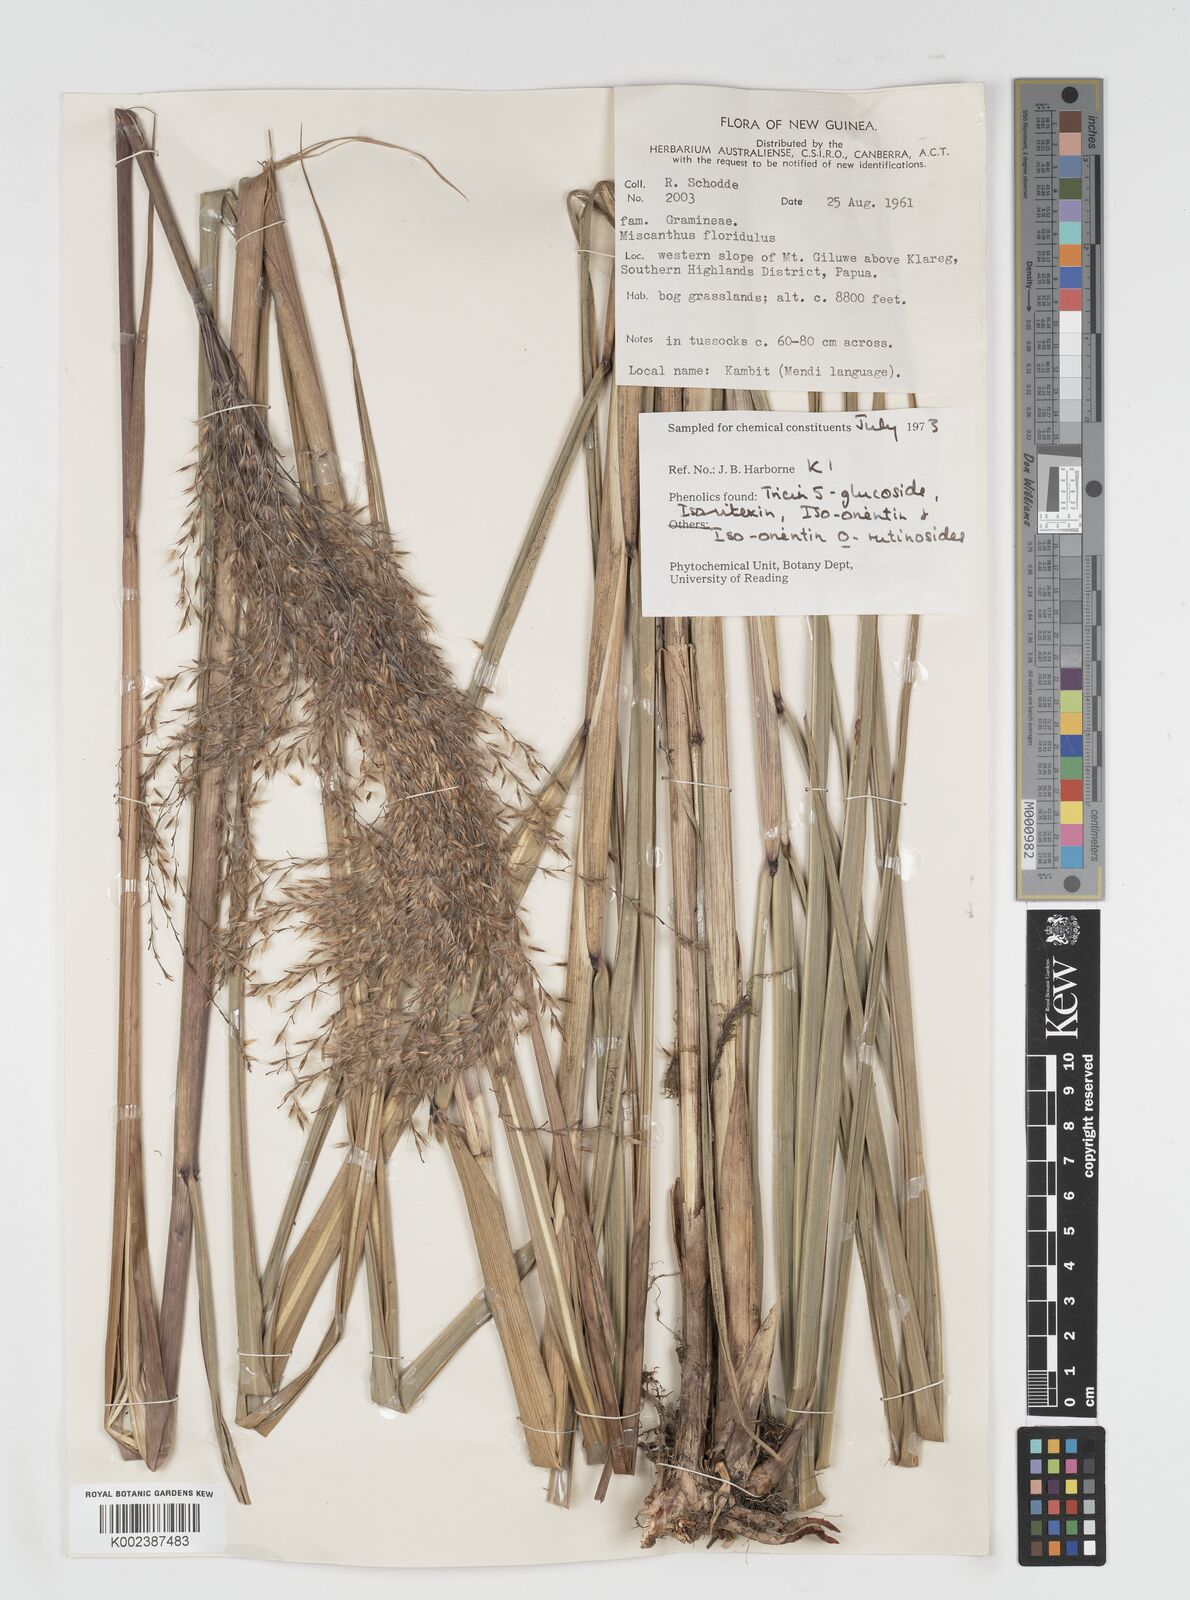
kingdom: Plantae
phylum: Tracheophyta
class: Liliopsida
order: Poales
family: Poaceae
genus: Miscanthus
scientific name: Miscanthus floridulus
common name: Pacific island silvergrass
